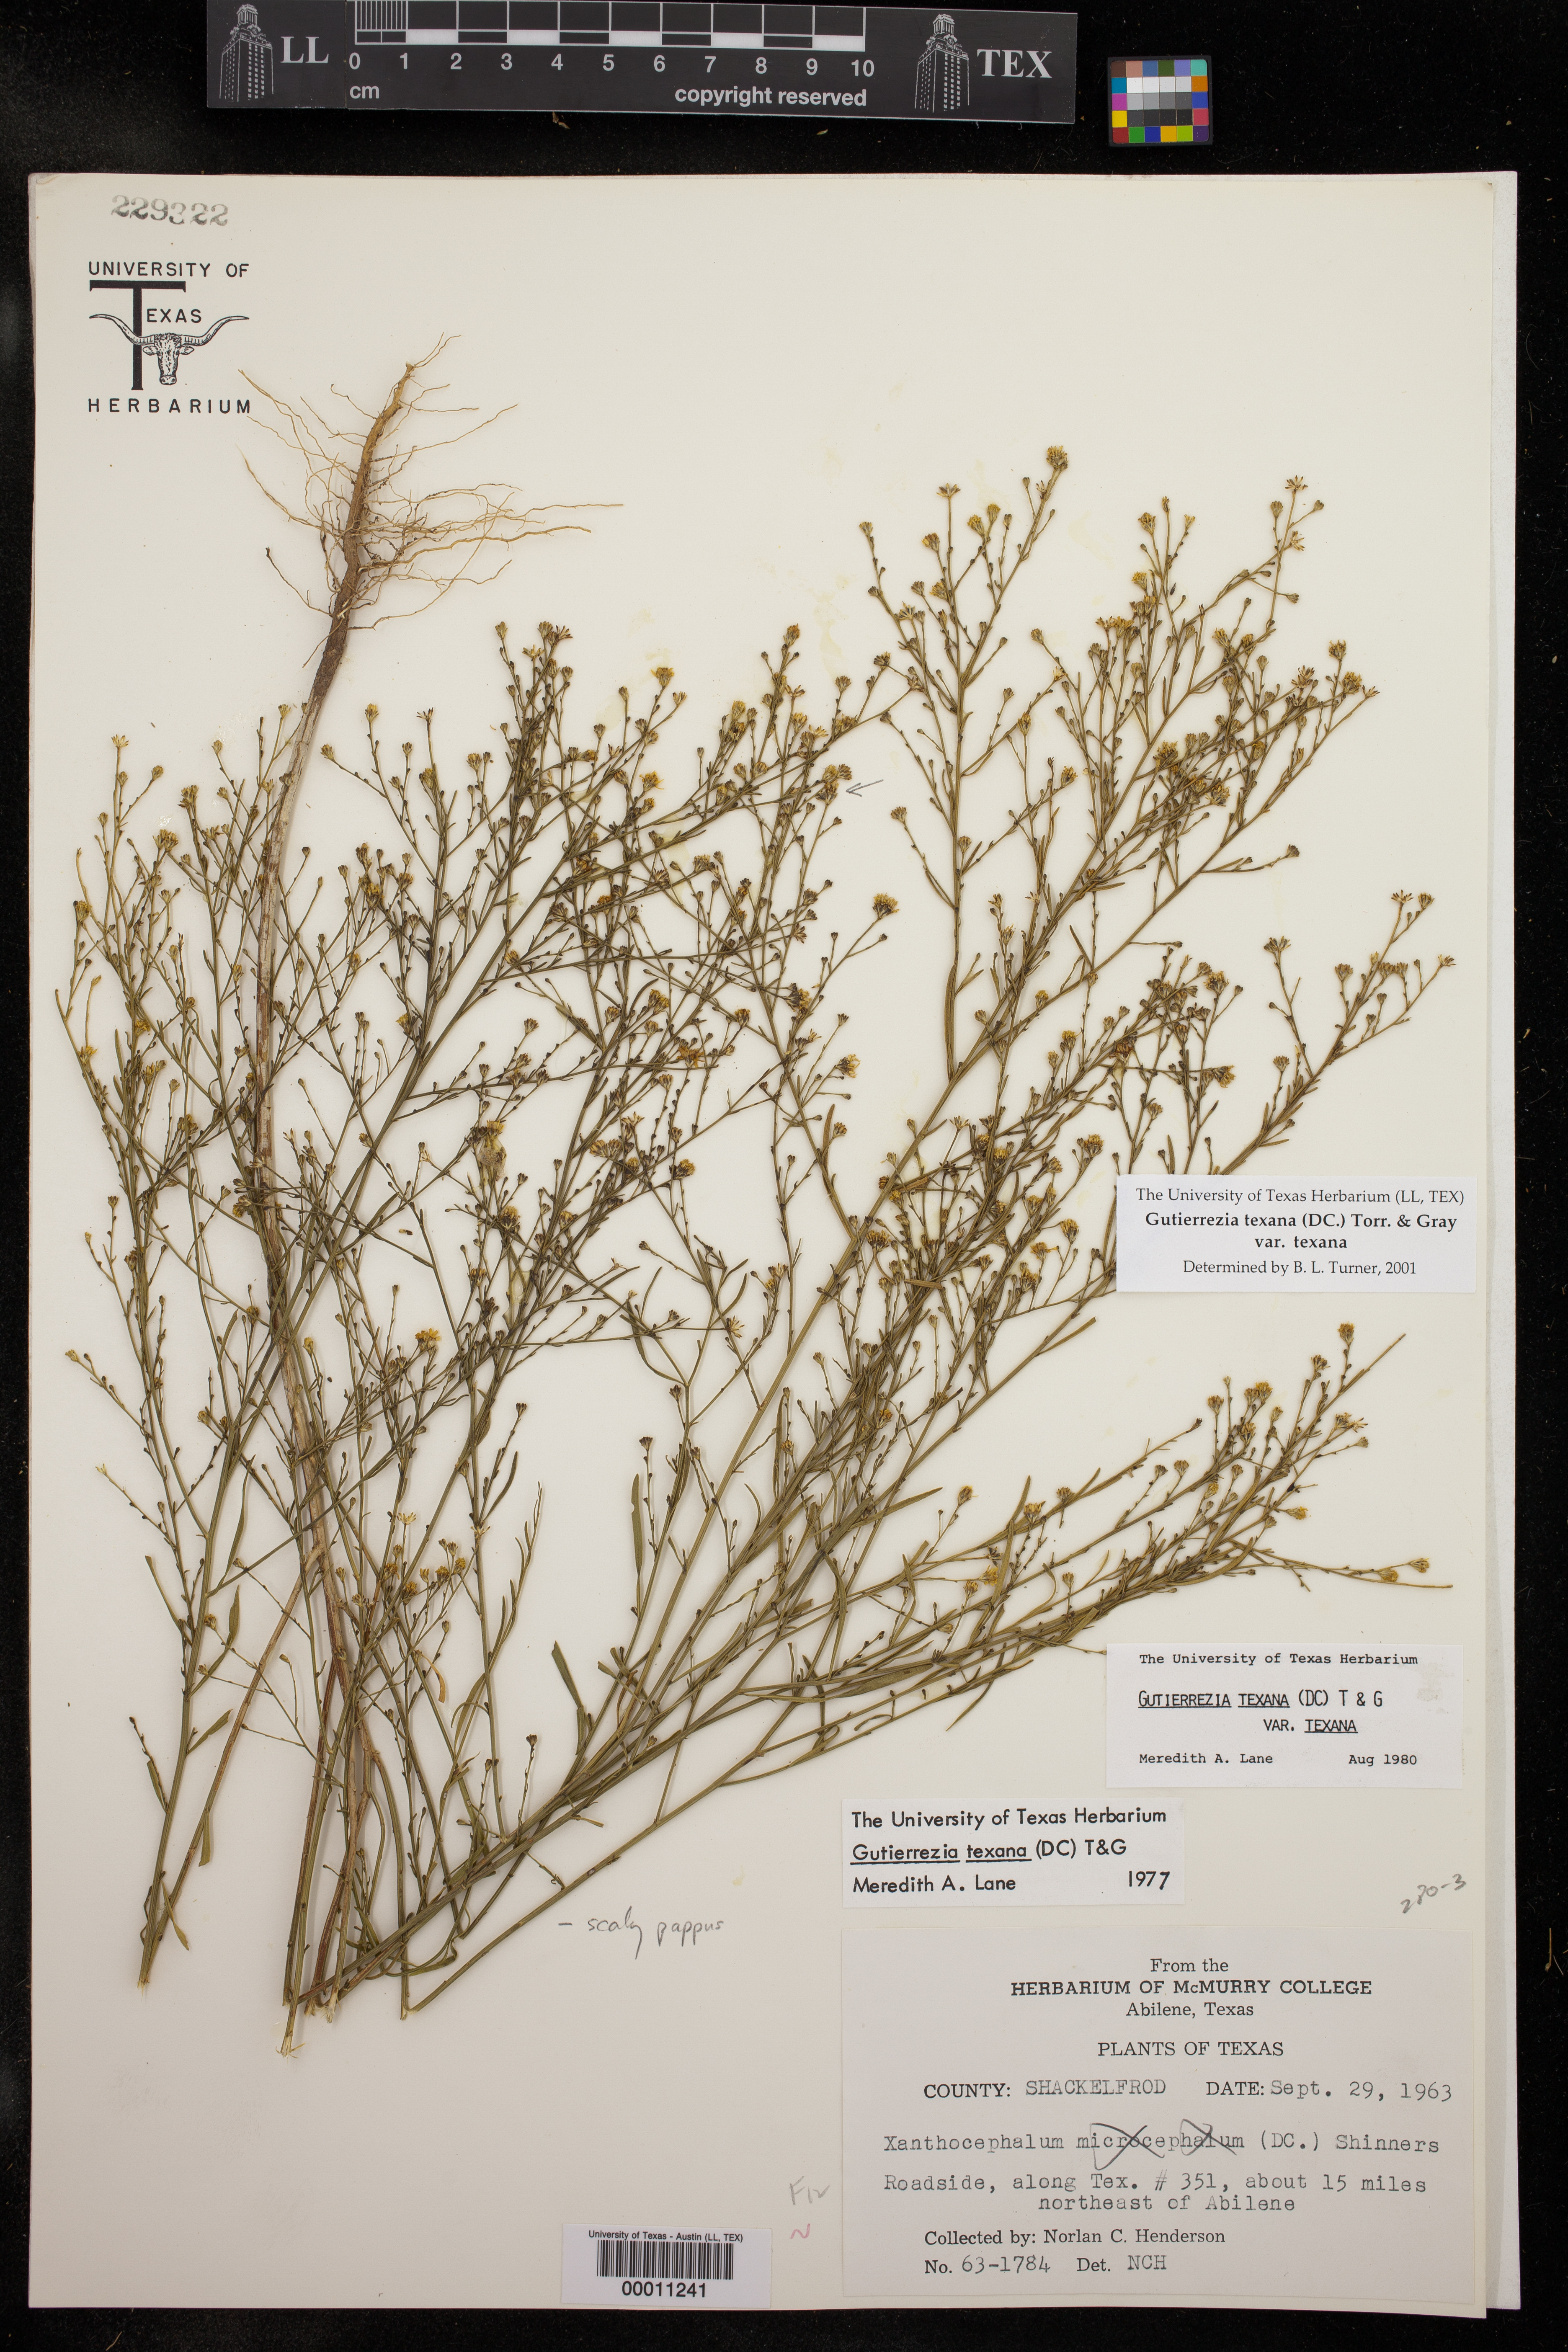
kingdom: Plantae
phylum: Tracheophyta
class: Magnoliopsida
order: Asterales
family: Asteraceae
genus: Gutierrezia
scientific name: Gutierrezia texana
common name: Texas snakeweed
